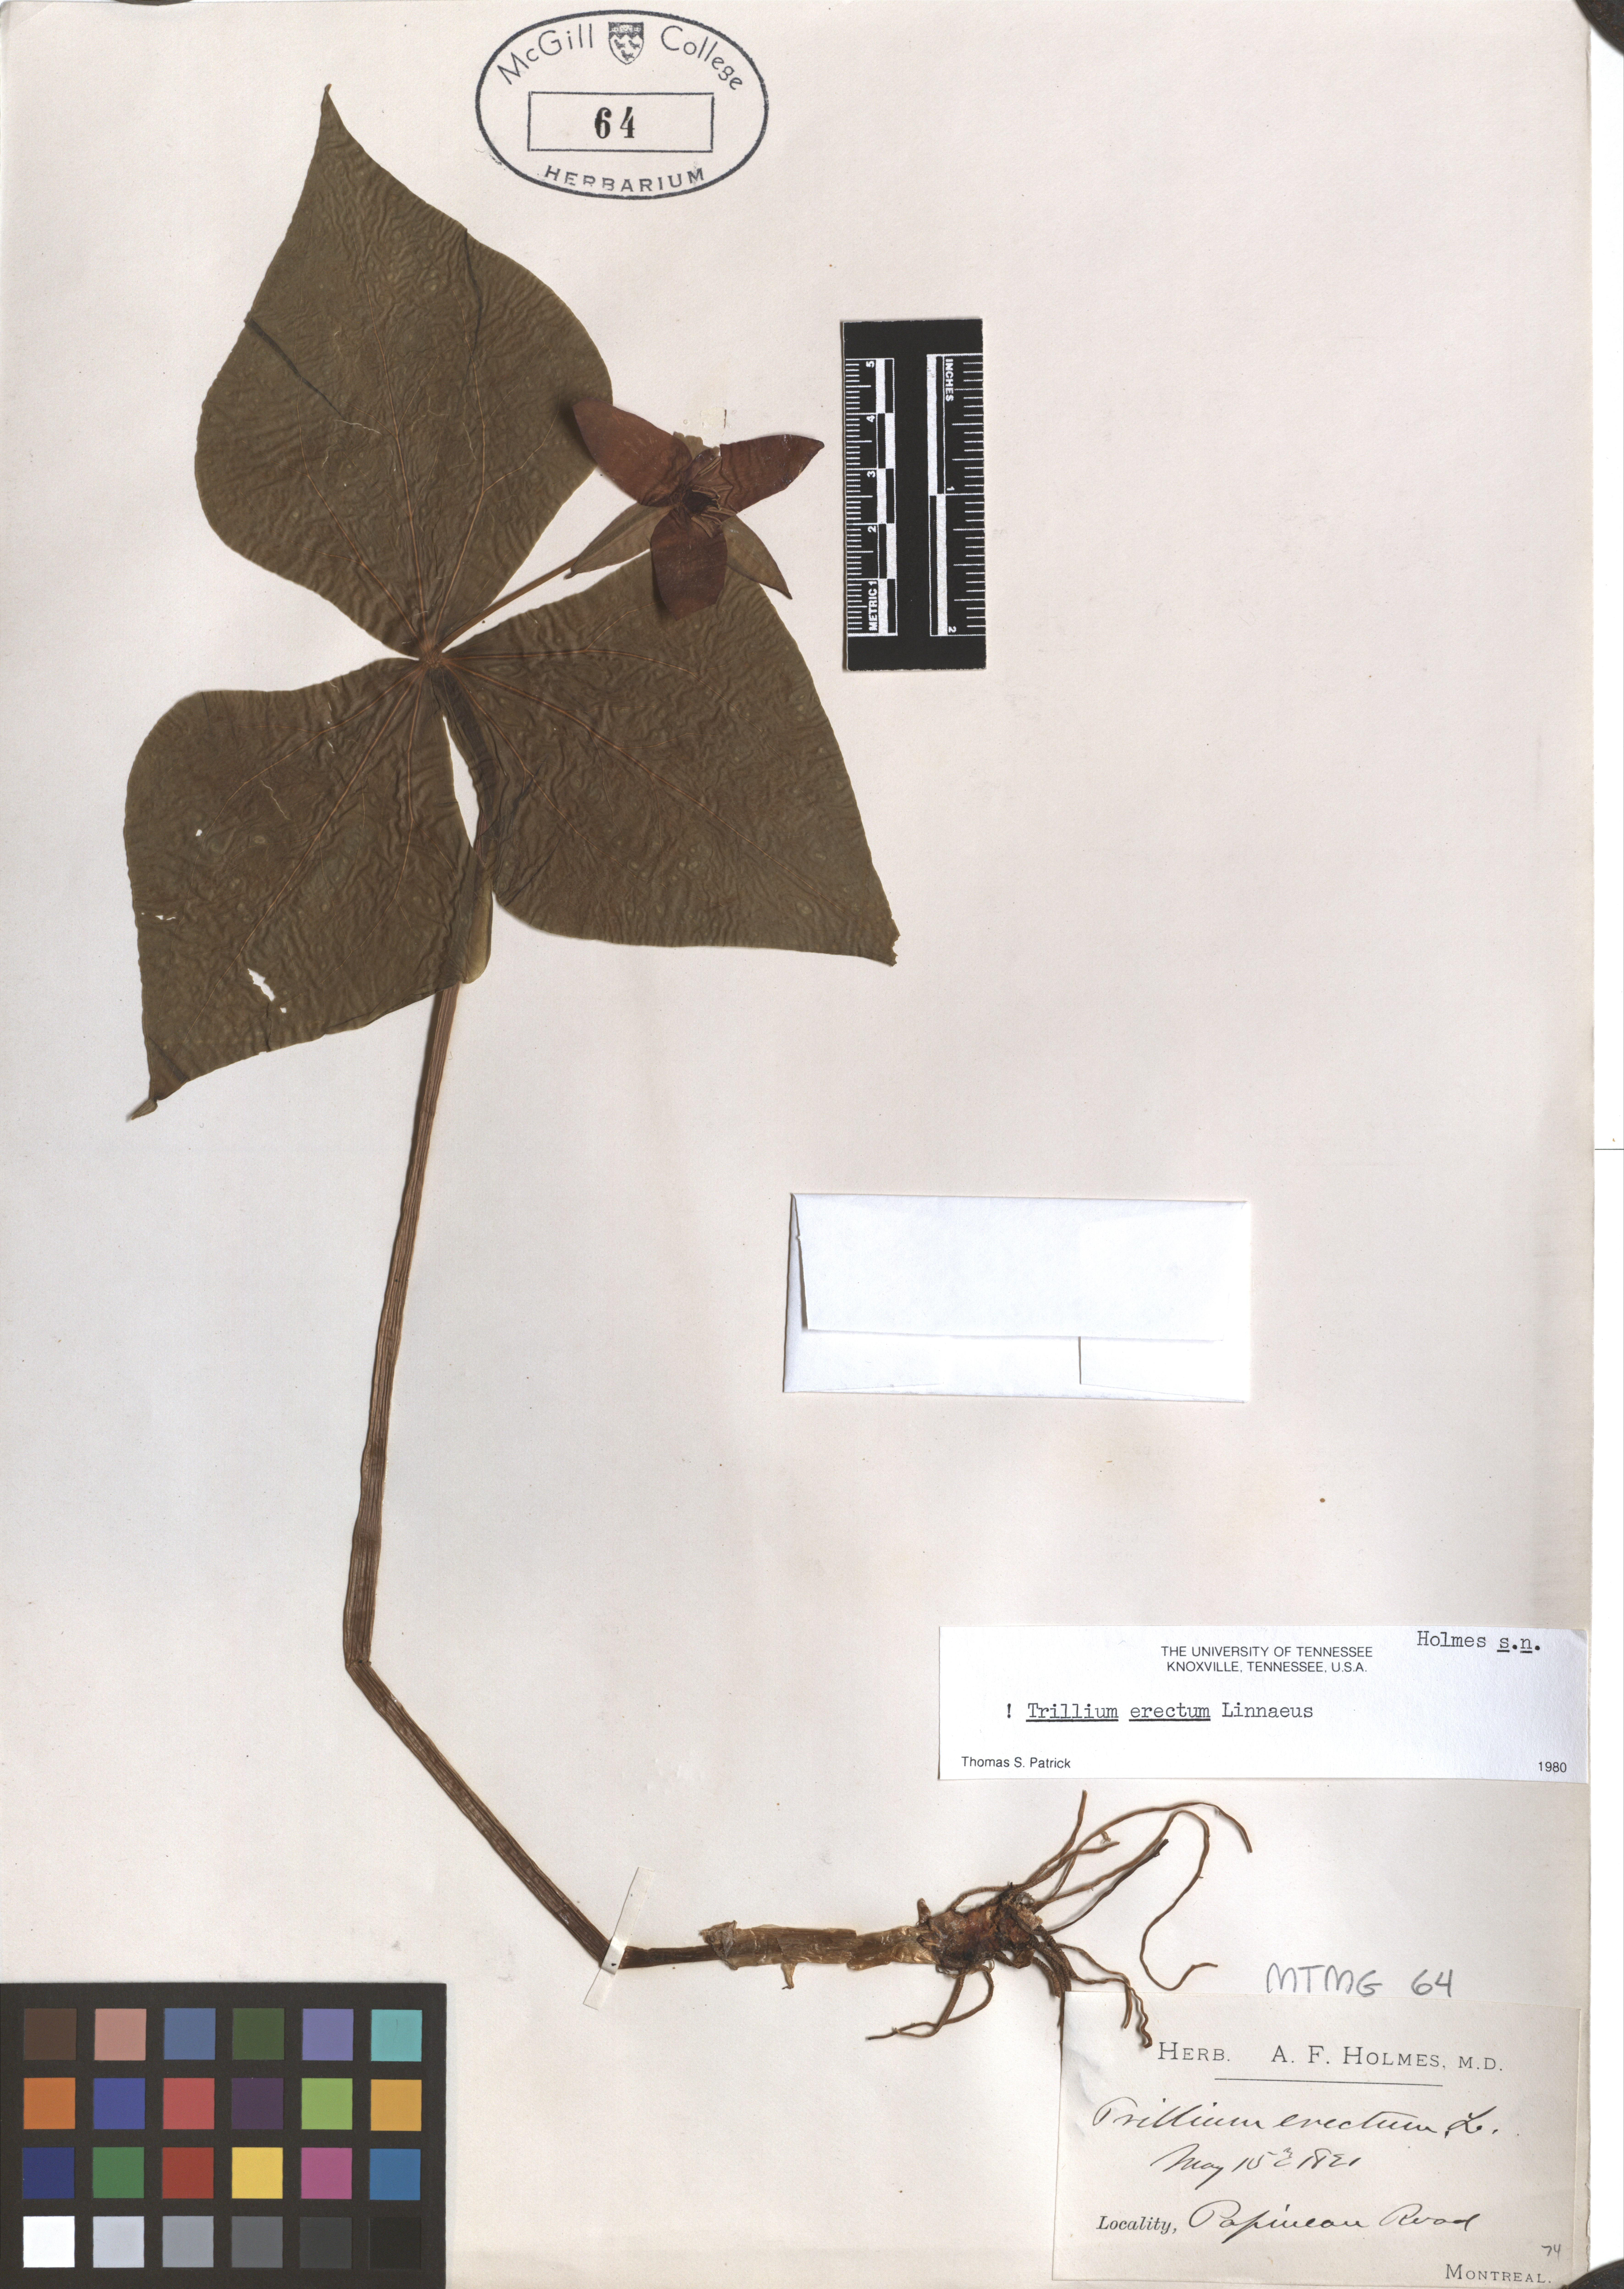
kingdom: Plantae
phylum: Tracheophyta
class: Liliopsida
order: Liliales
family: Melanthiaceae
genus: Trillium
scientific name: Trillium erectum
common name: Purple trillium
